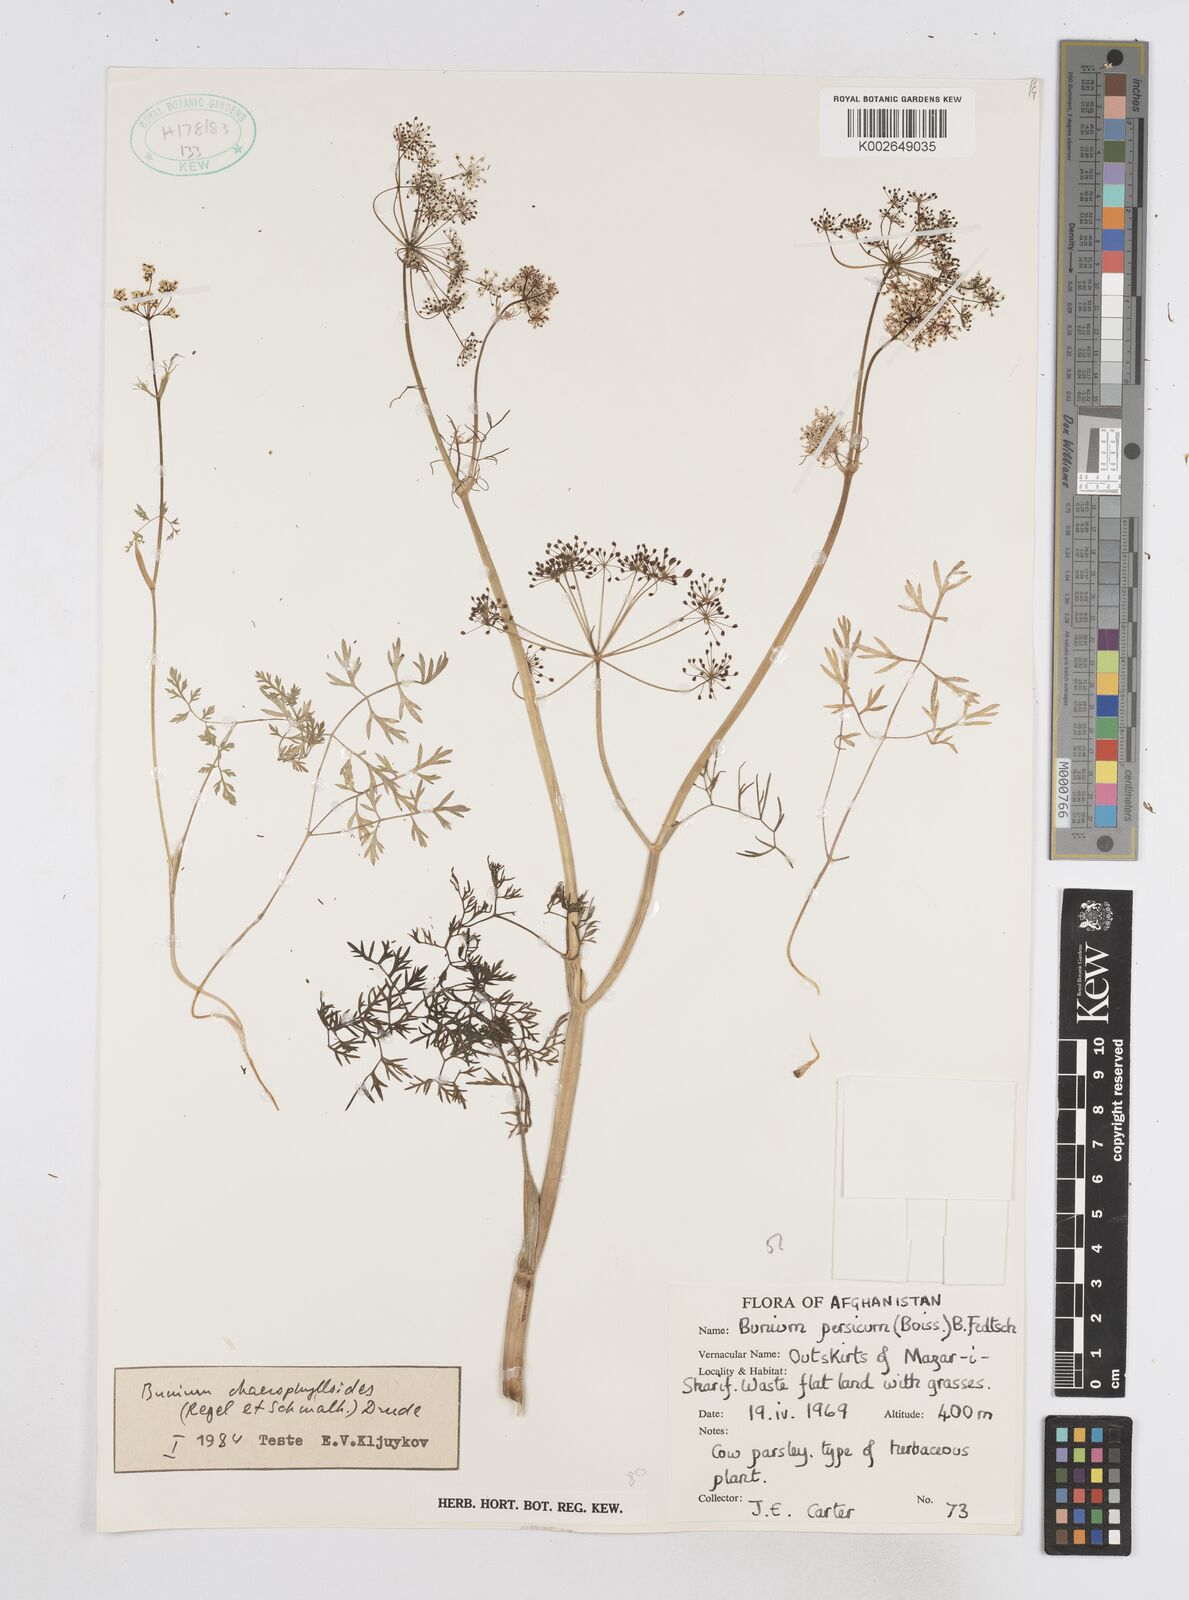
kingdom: Plantae
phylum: Tracheophyta
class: Magnoliopsida
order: Apiales
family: Apiaceae
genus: Elwendia
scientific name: Elwendia chaerophylloides
